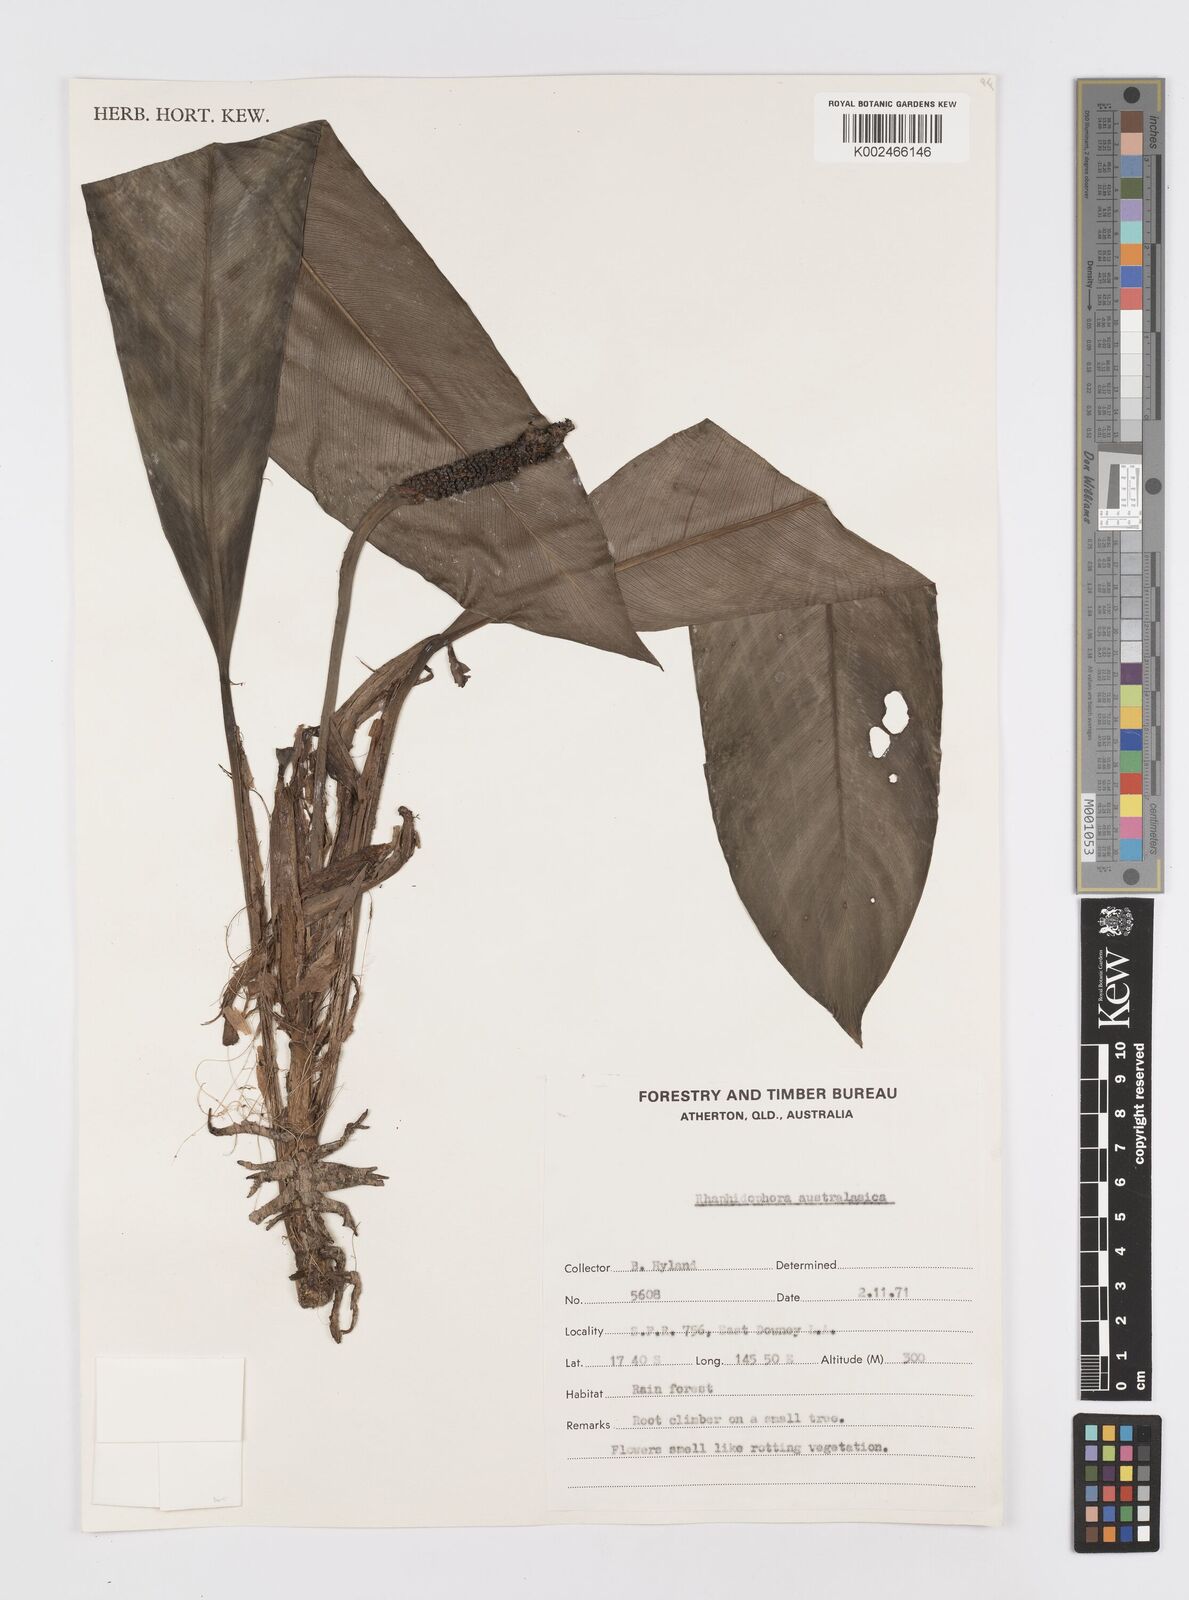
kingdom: Plantae
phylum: Tracheophyta
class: Liliopsida
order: Alismatales
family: Araceae
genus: Rhaphidophora
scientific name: Rhaphidophora australasica
